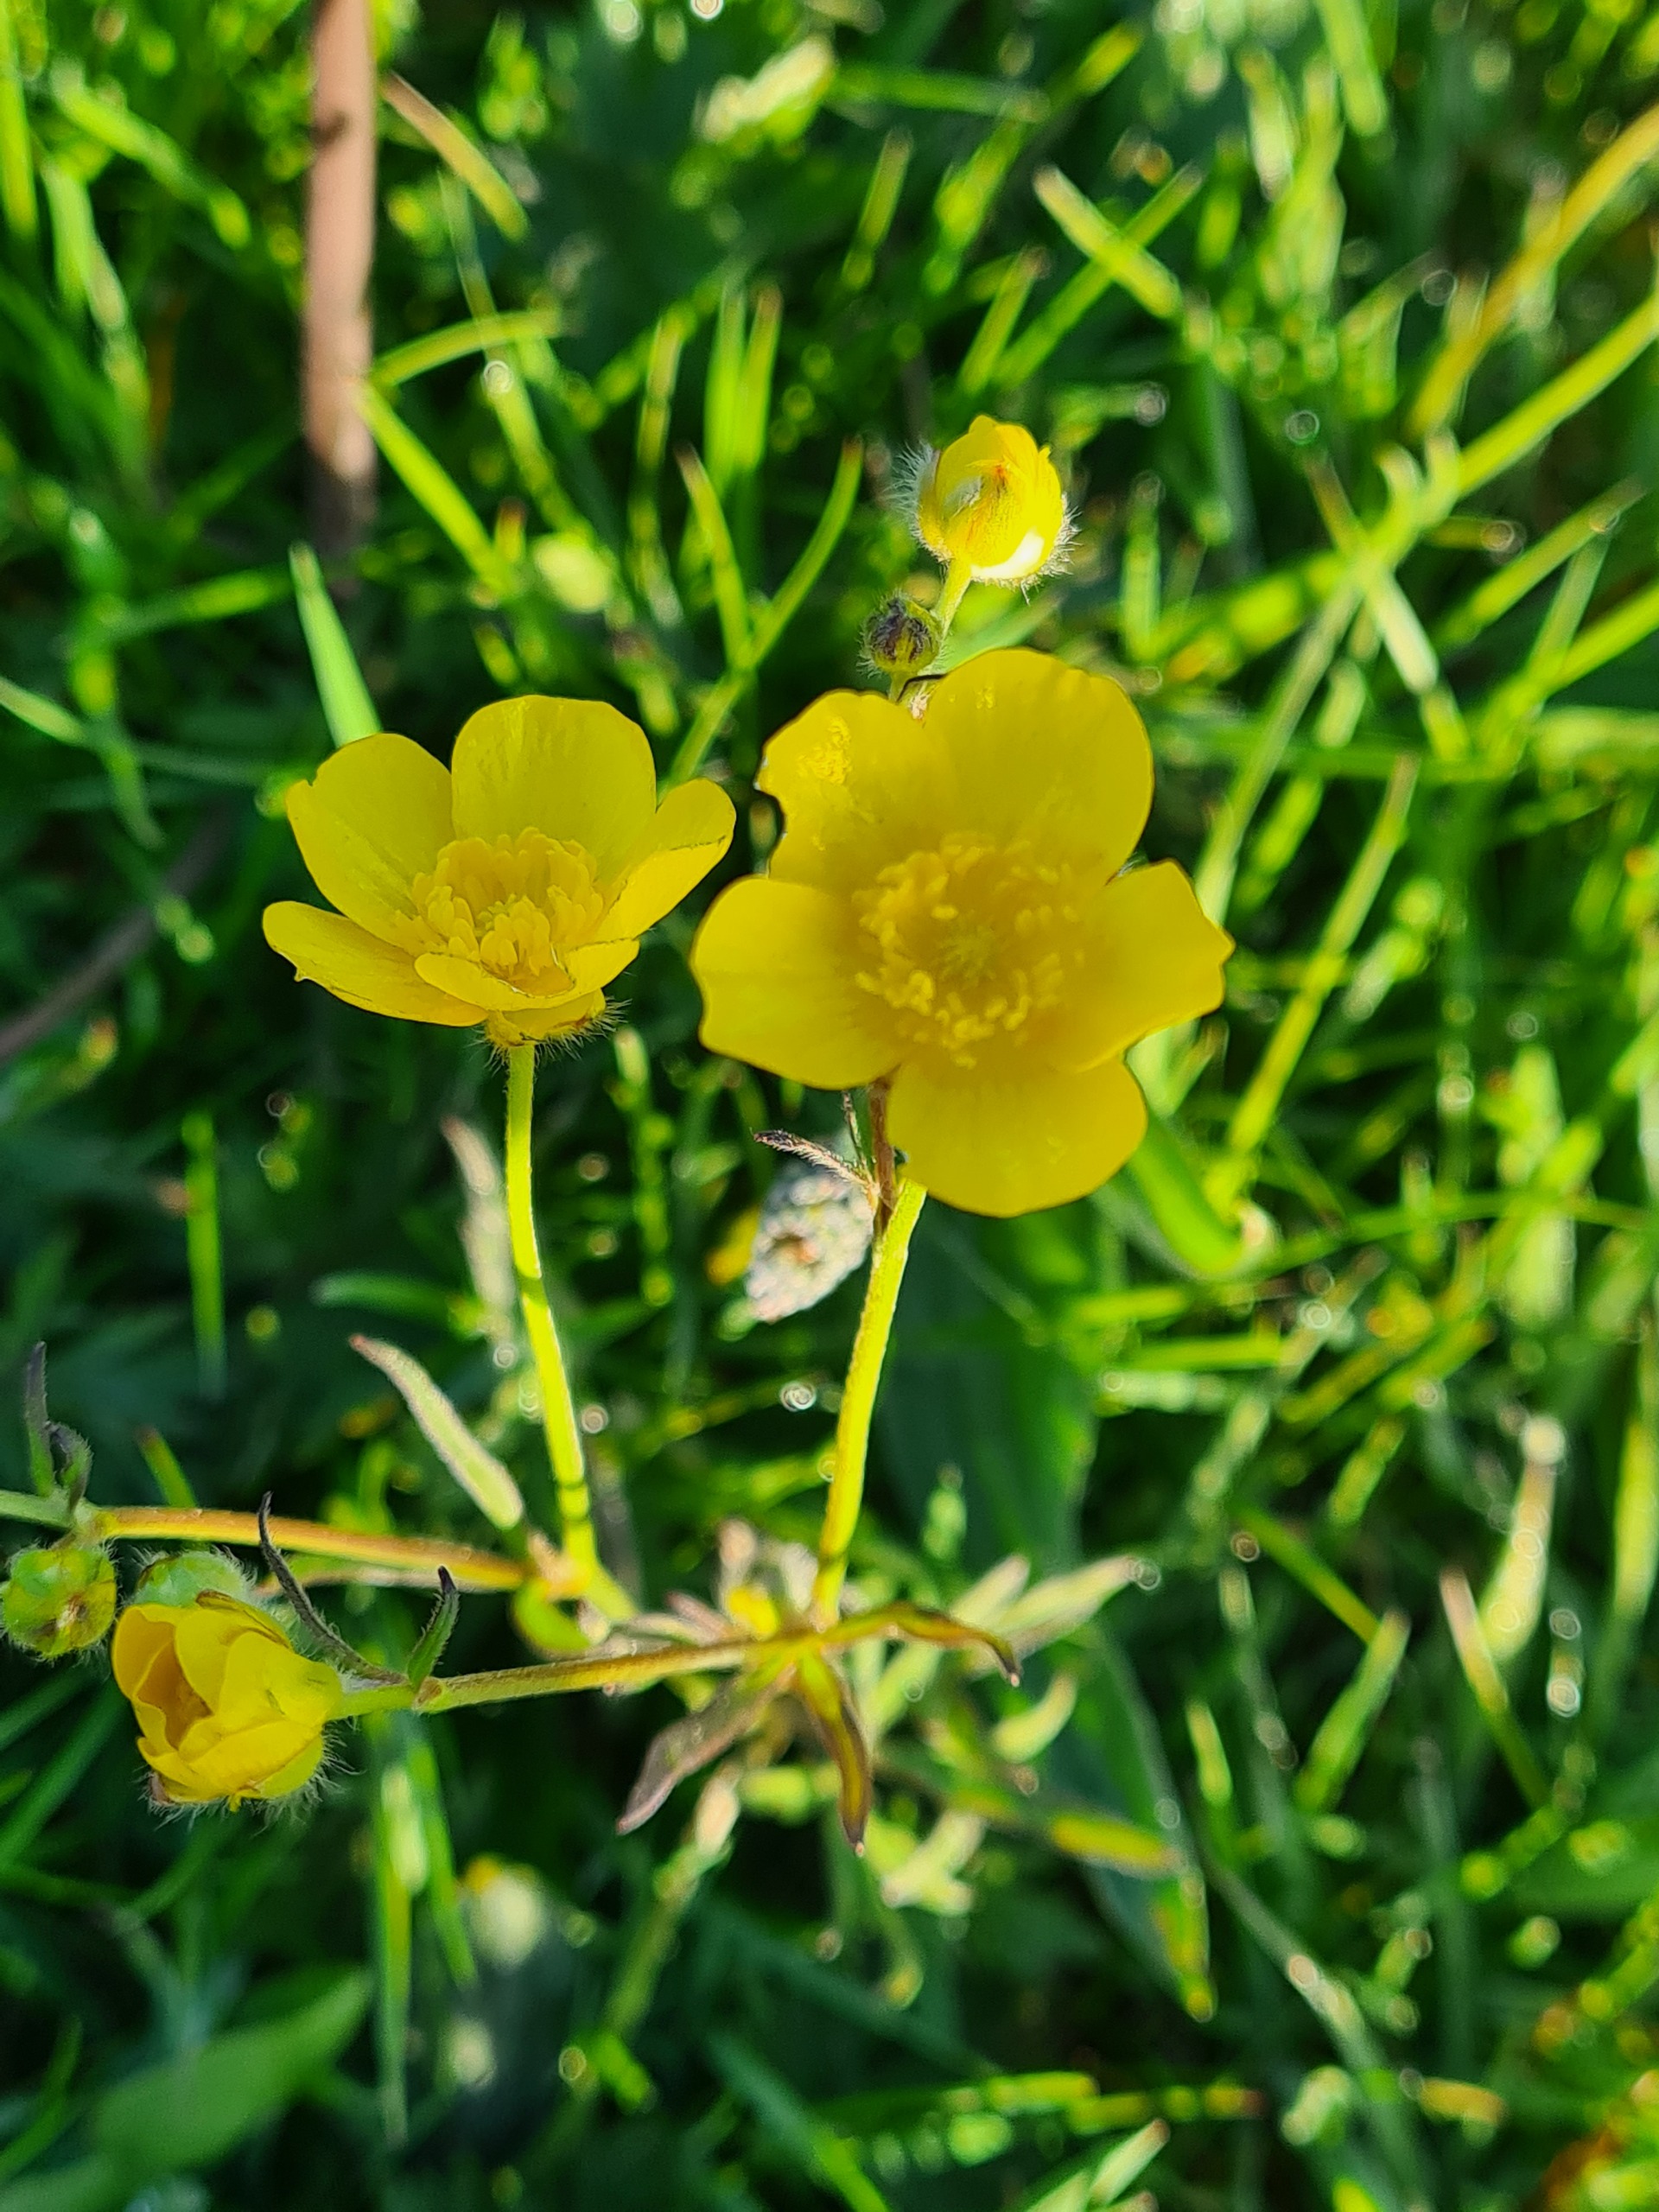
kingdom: Plantae
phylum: Tracheophyta
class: Magnoliopsida
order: Ranunculales
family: Ranunculaceae
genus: Ranunculus
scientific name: Ranunculus acris
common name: Bidende ranunkel
